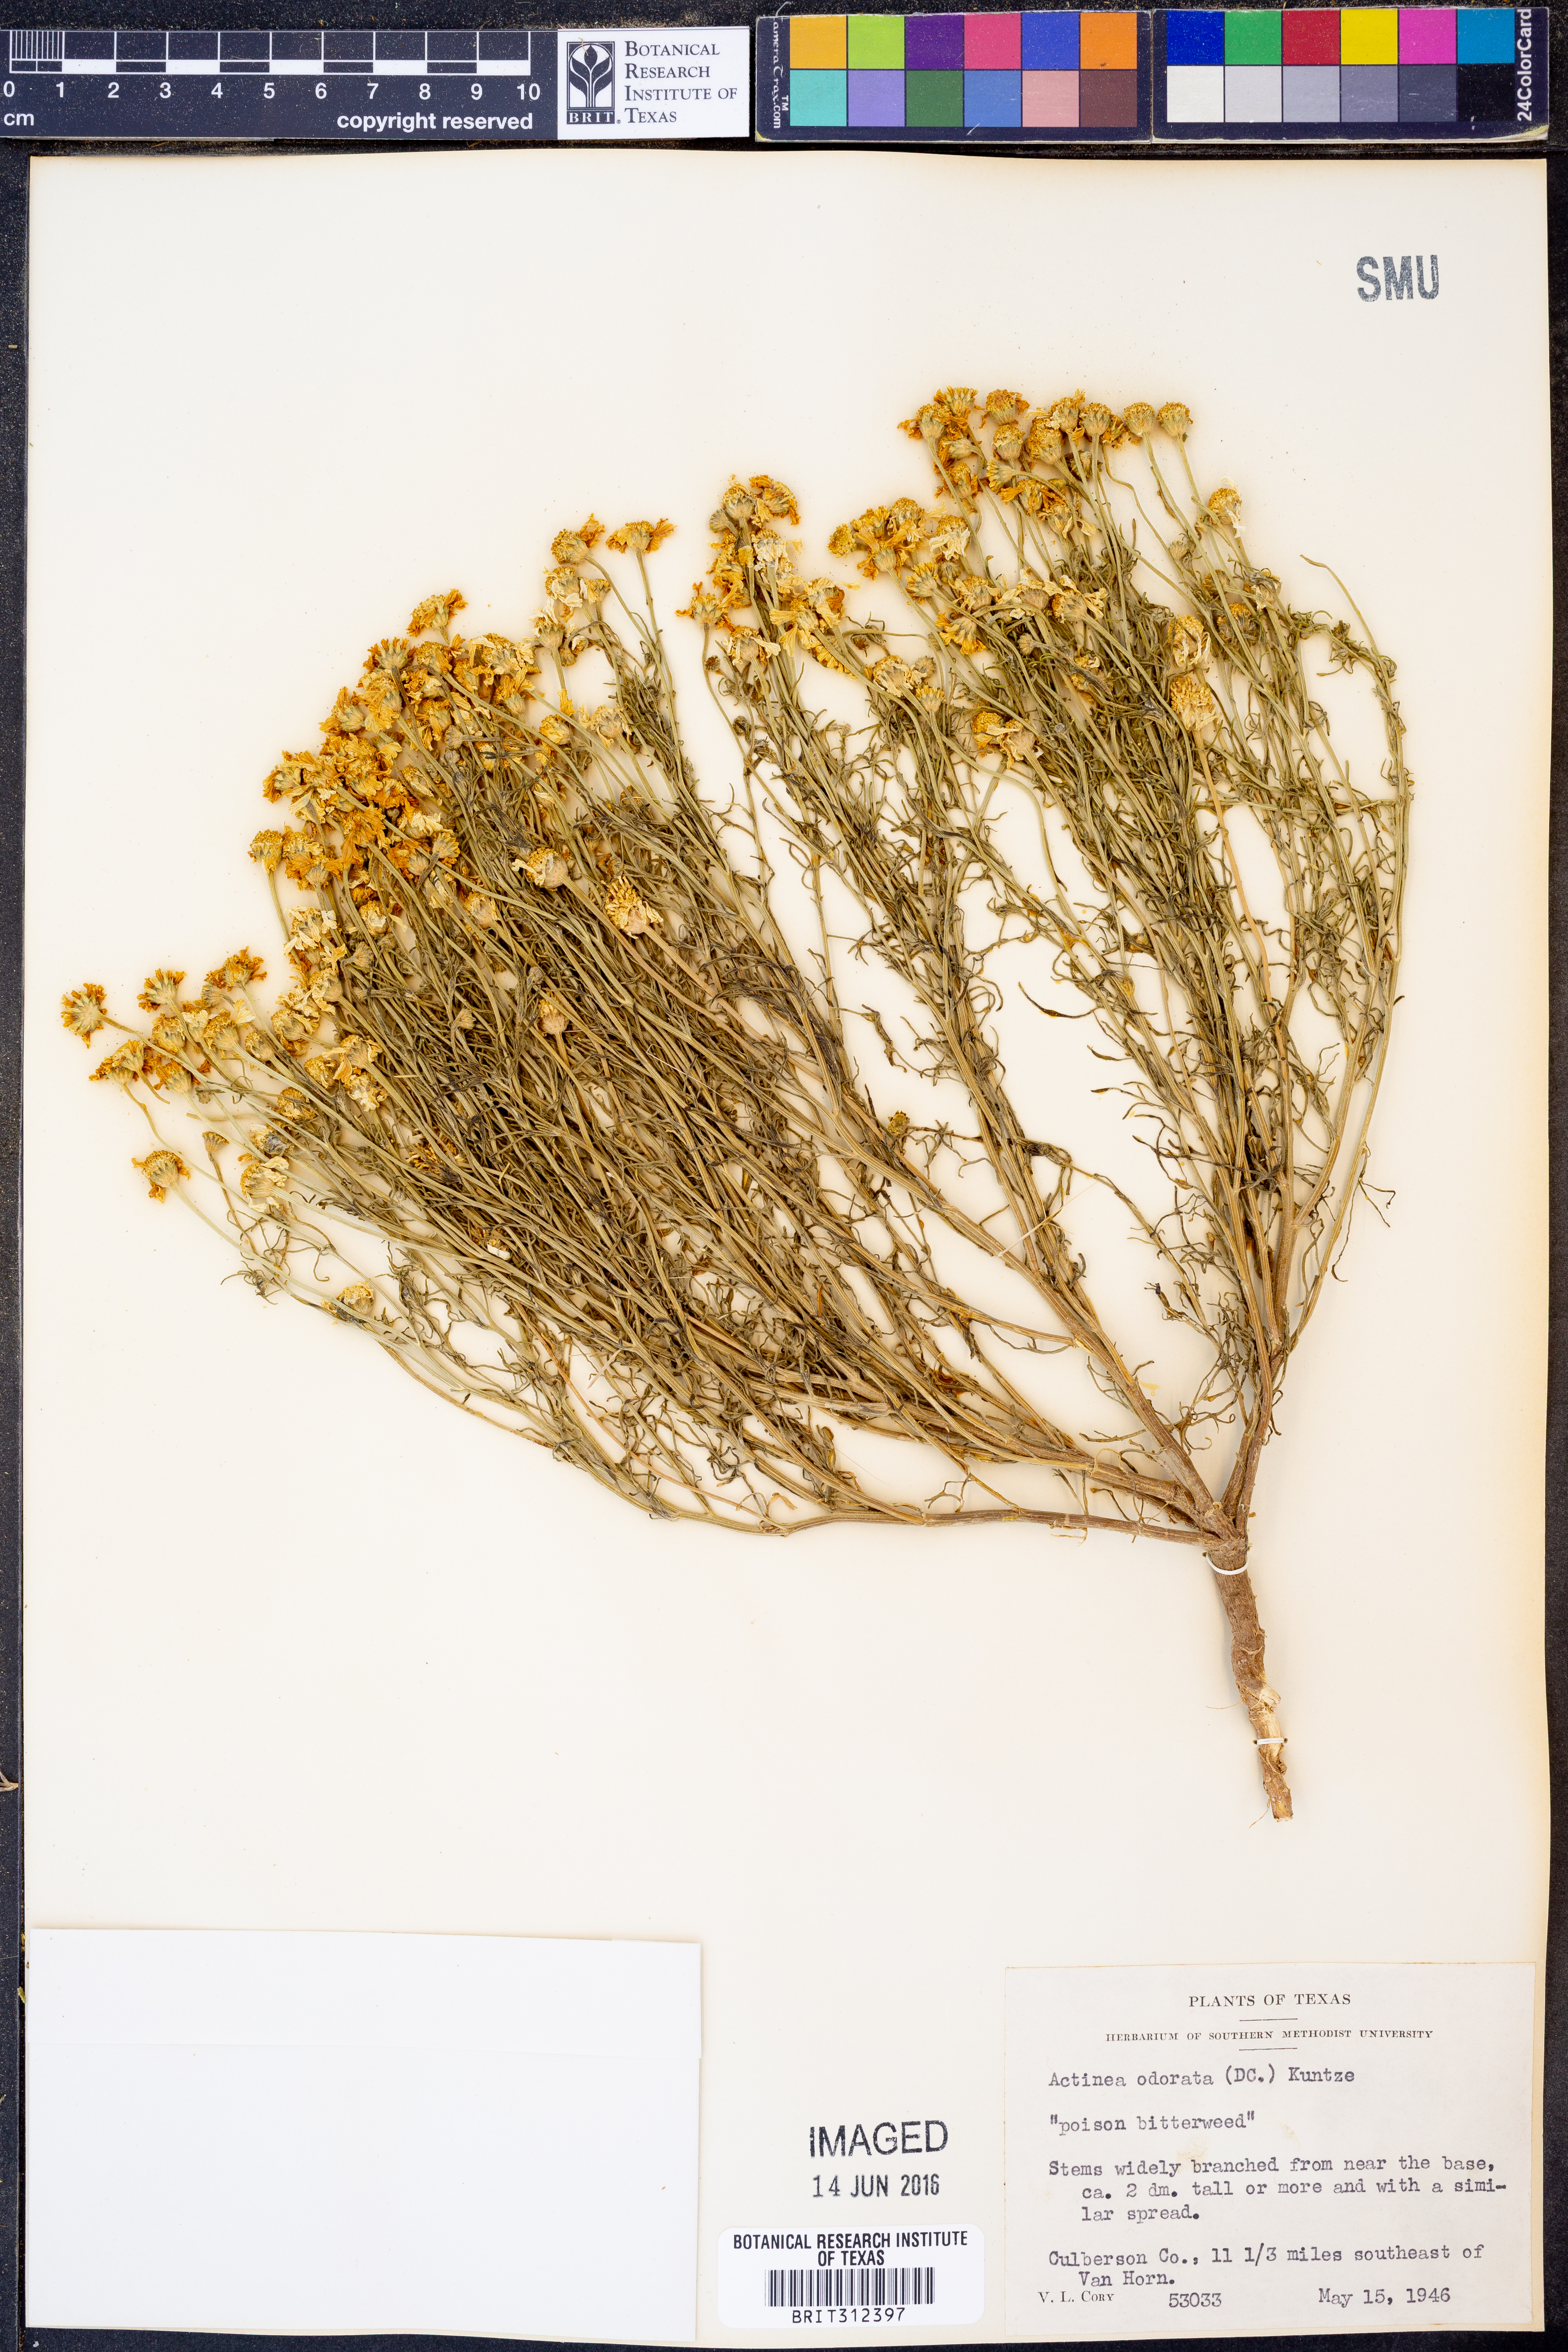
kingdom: Plantae
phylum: Tracheophyta
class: Magnoliopsida
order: Asterales
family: Asteraceae
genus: Hymenoxys
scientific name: Hymenoxys odorata
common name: Bitter rubberweed
